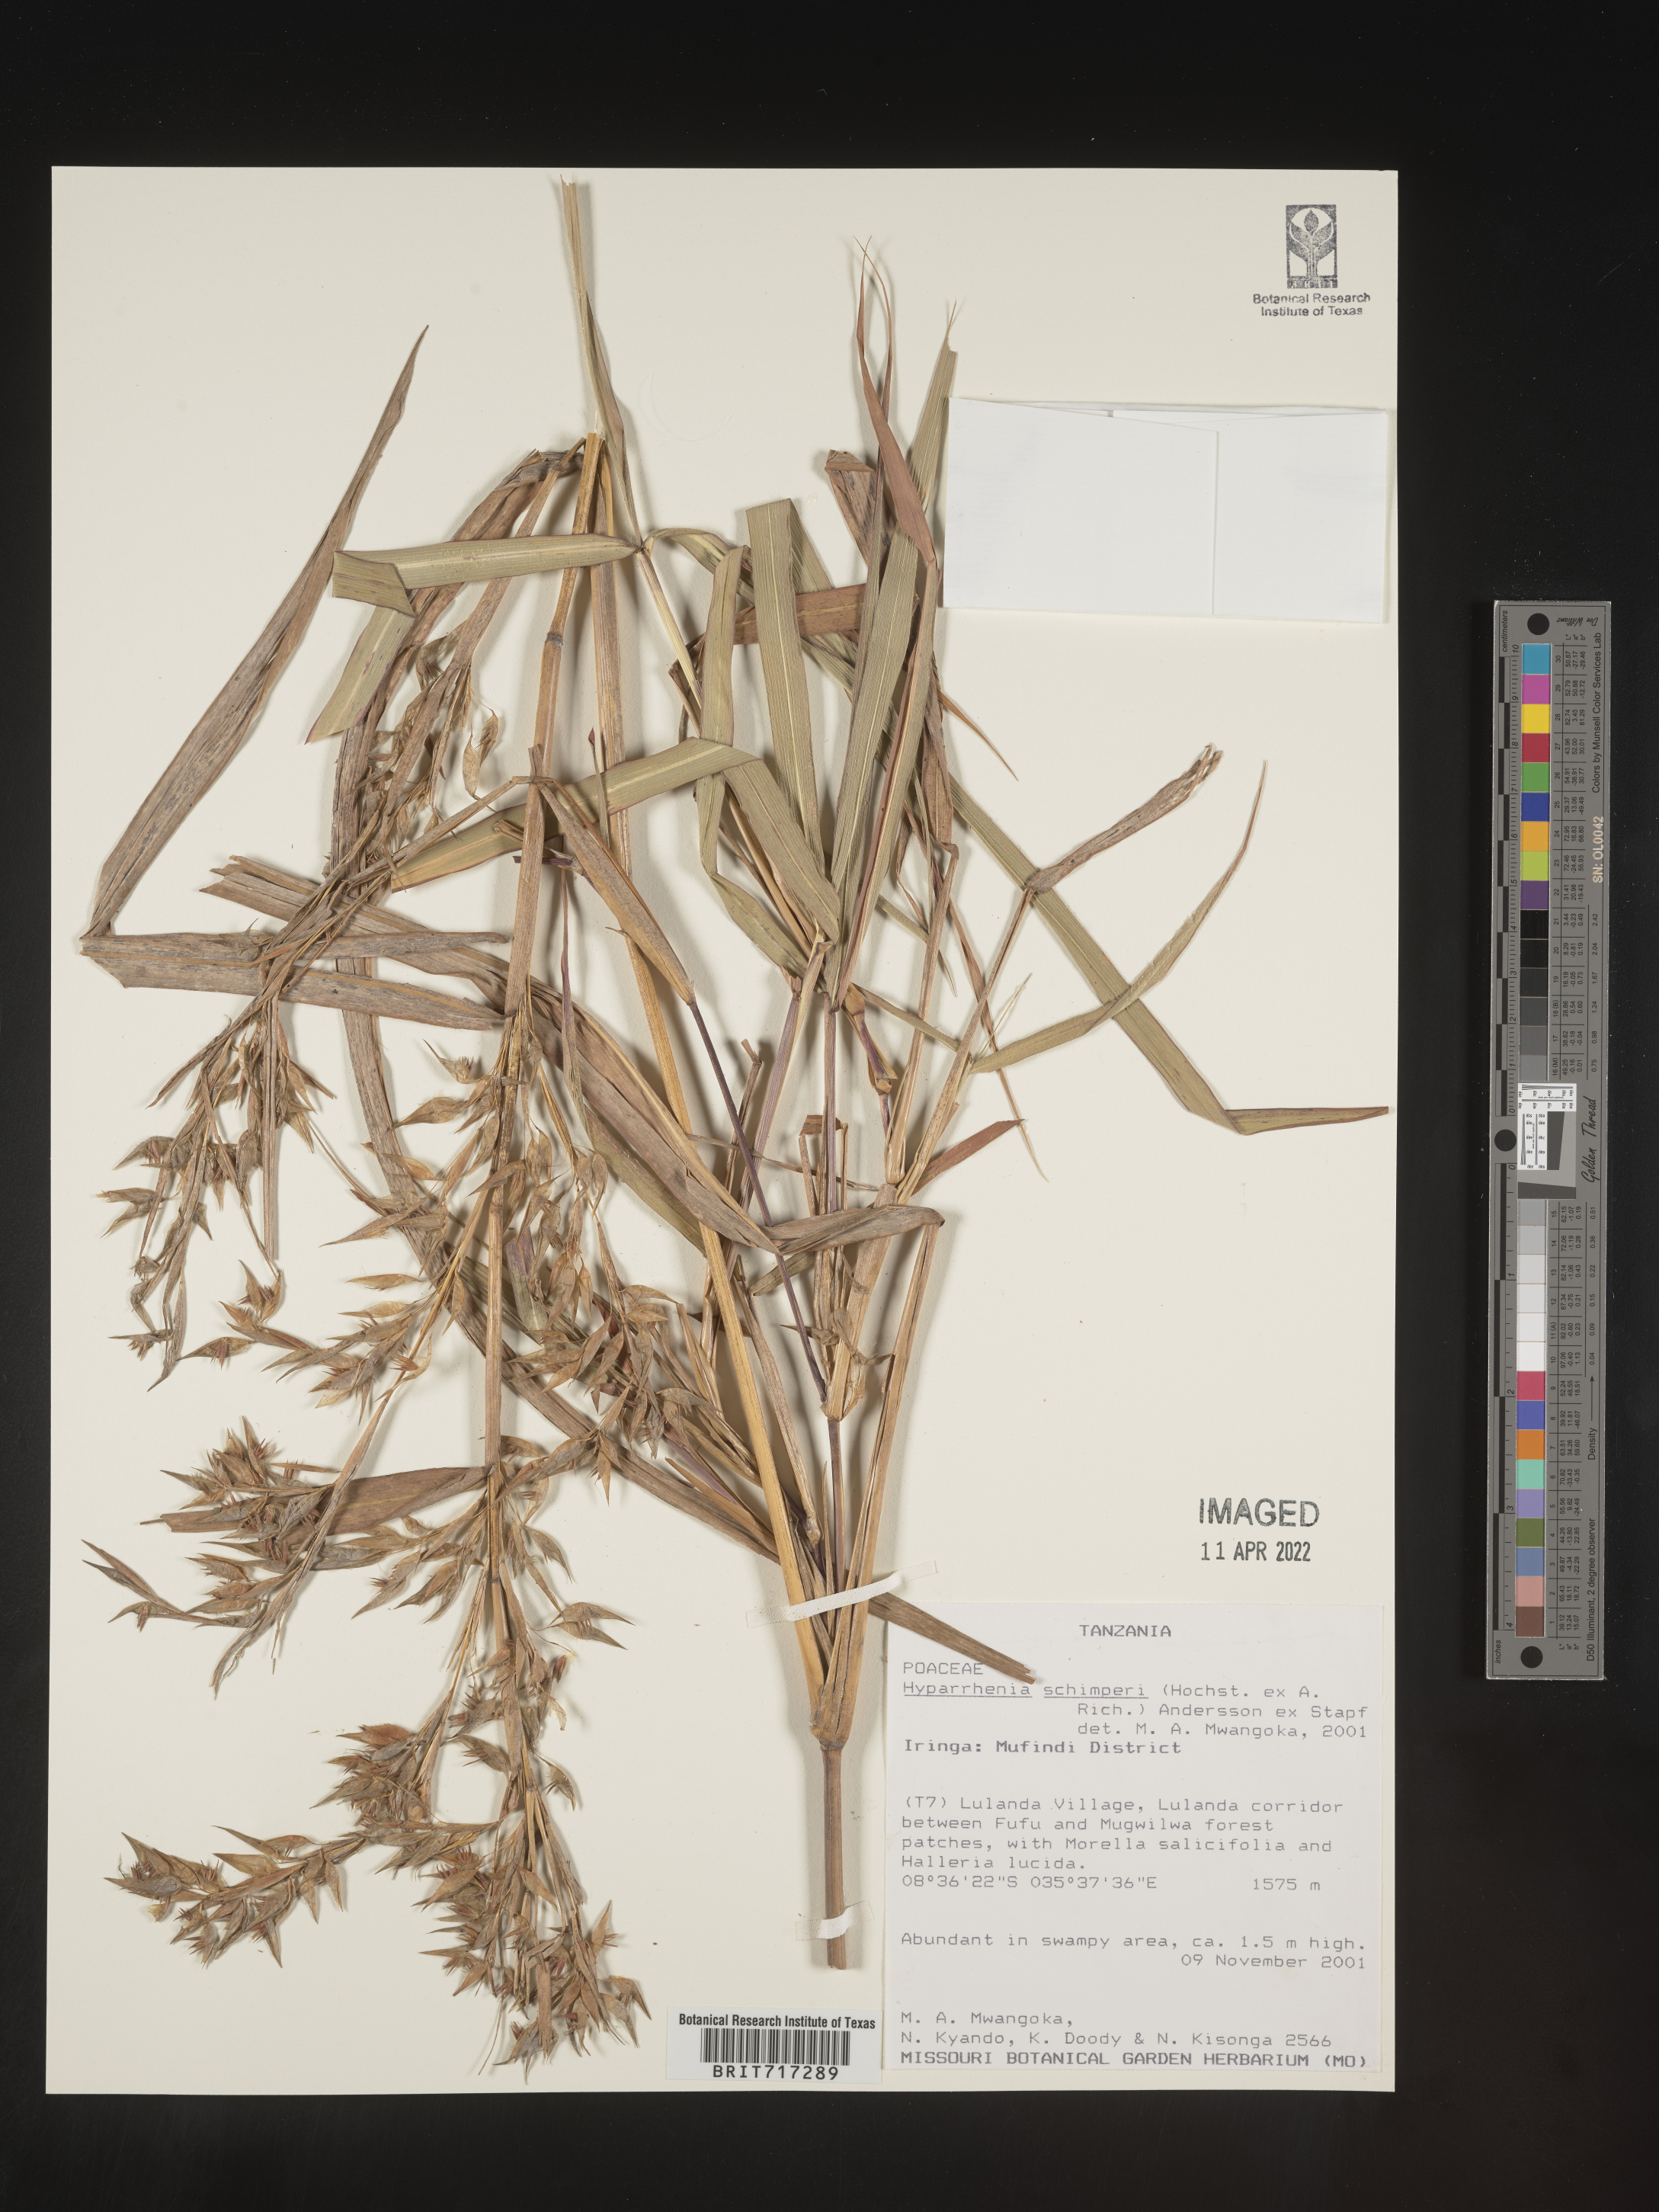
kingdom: Plantae
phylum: Tracheophyta
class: Liliopsida
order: Poales
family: Poaceae
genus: Hyparrhenia
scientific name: Hyparrhenia
